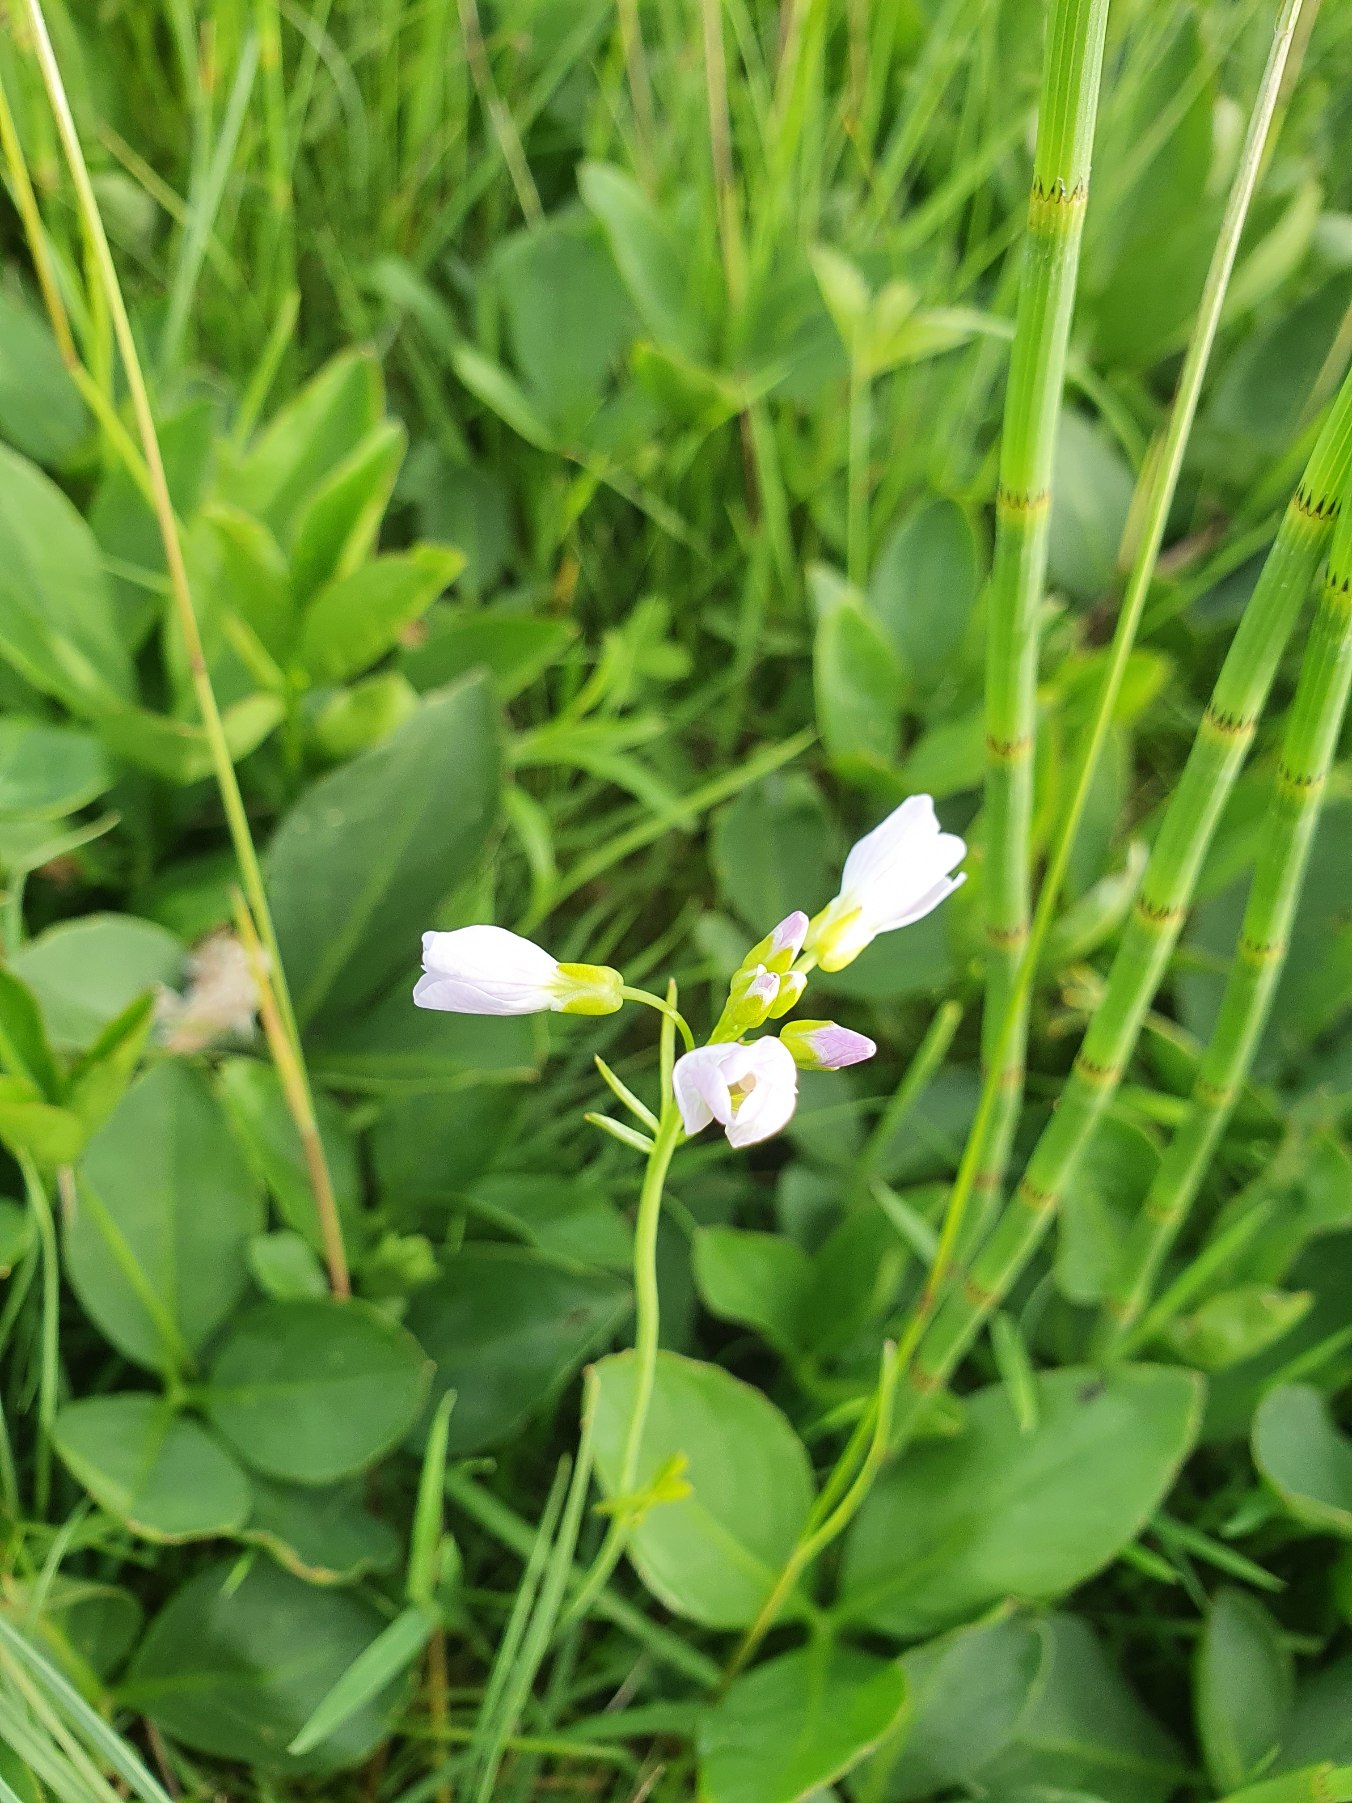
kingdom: Plantae
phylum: Tracheophyta
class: Magnoliopsida
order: Brassicales
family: Brassicaceae
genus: Cardamine
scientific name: Cardamine pratensis
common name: Engkarse
